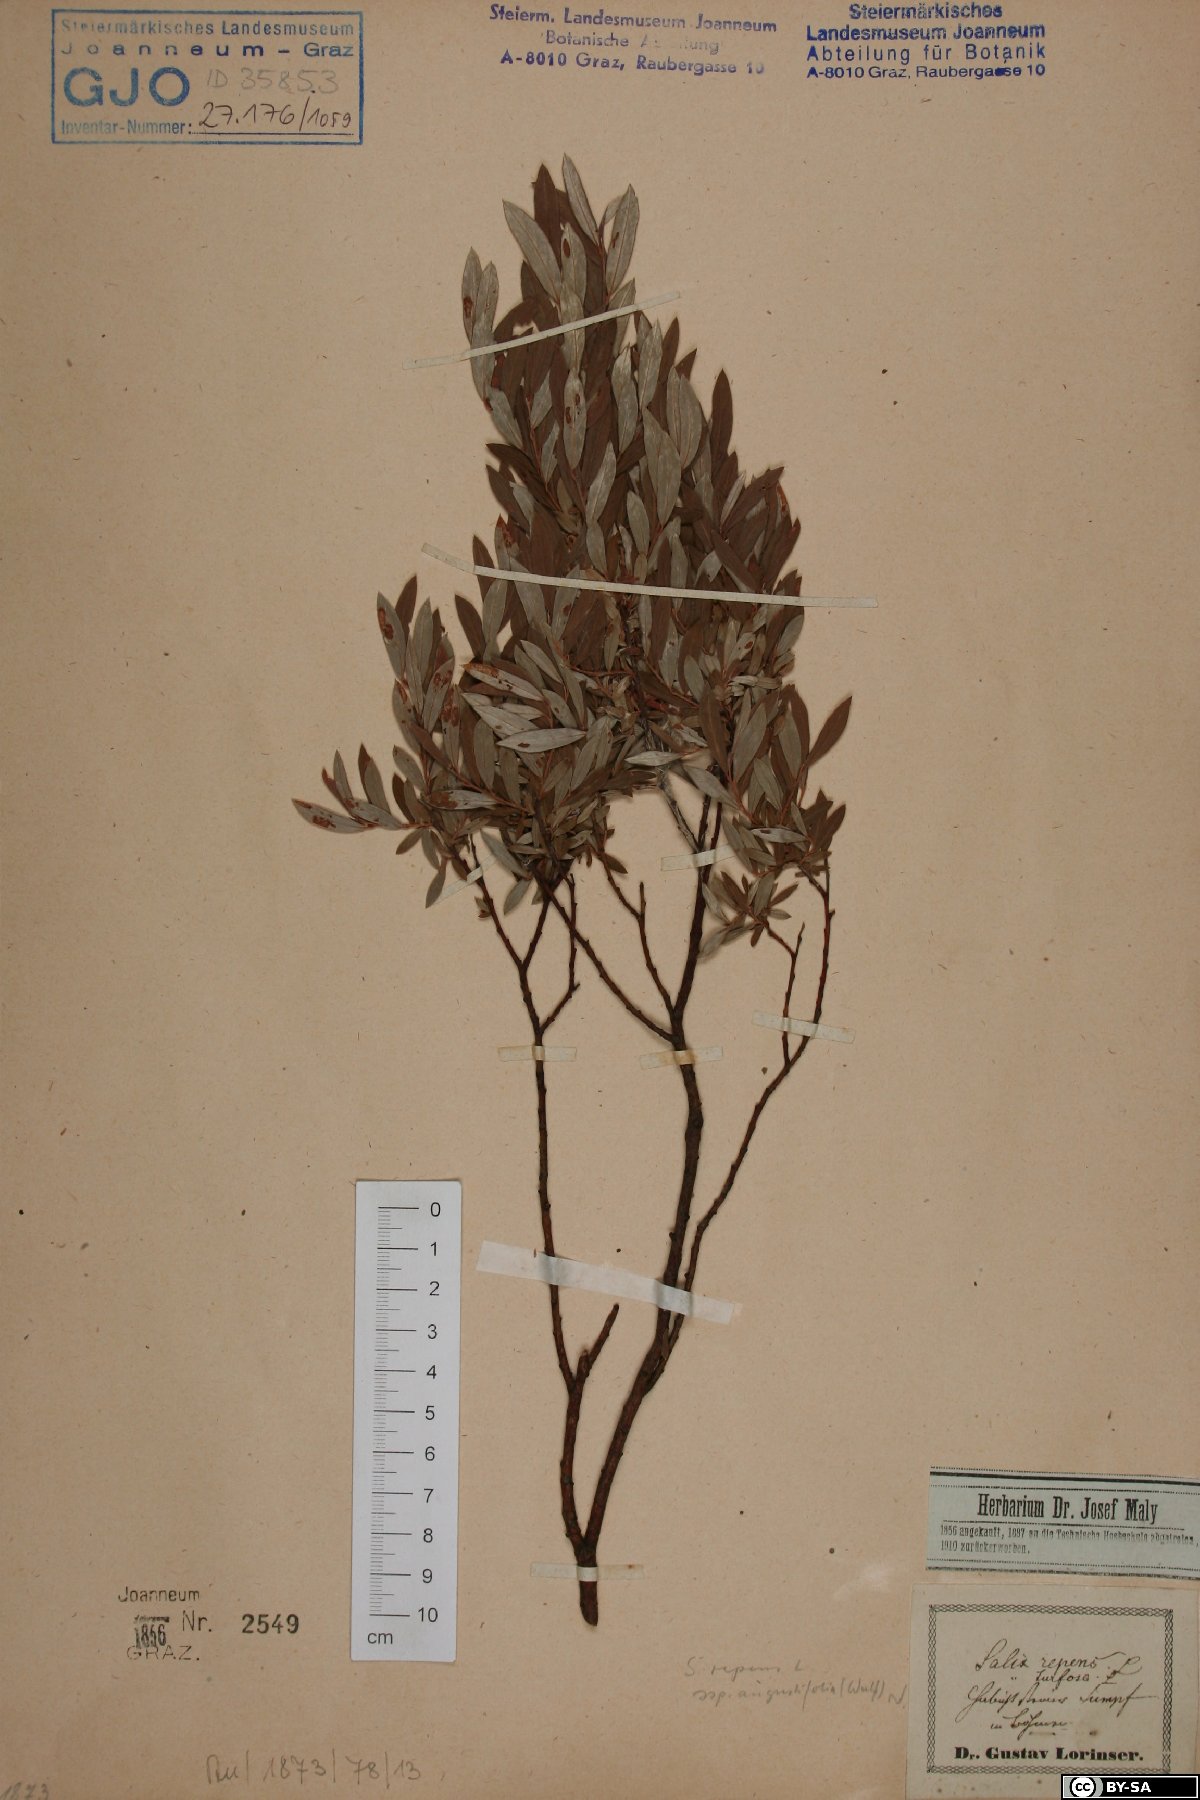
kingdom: Plantae
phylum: Tracheophyta
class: Magnoliopsida
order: Malpighiales
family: Salicaceae
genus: Salix
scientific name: Salix rosmarinifolia
